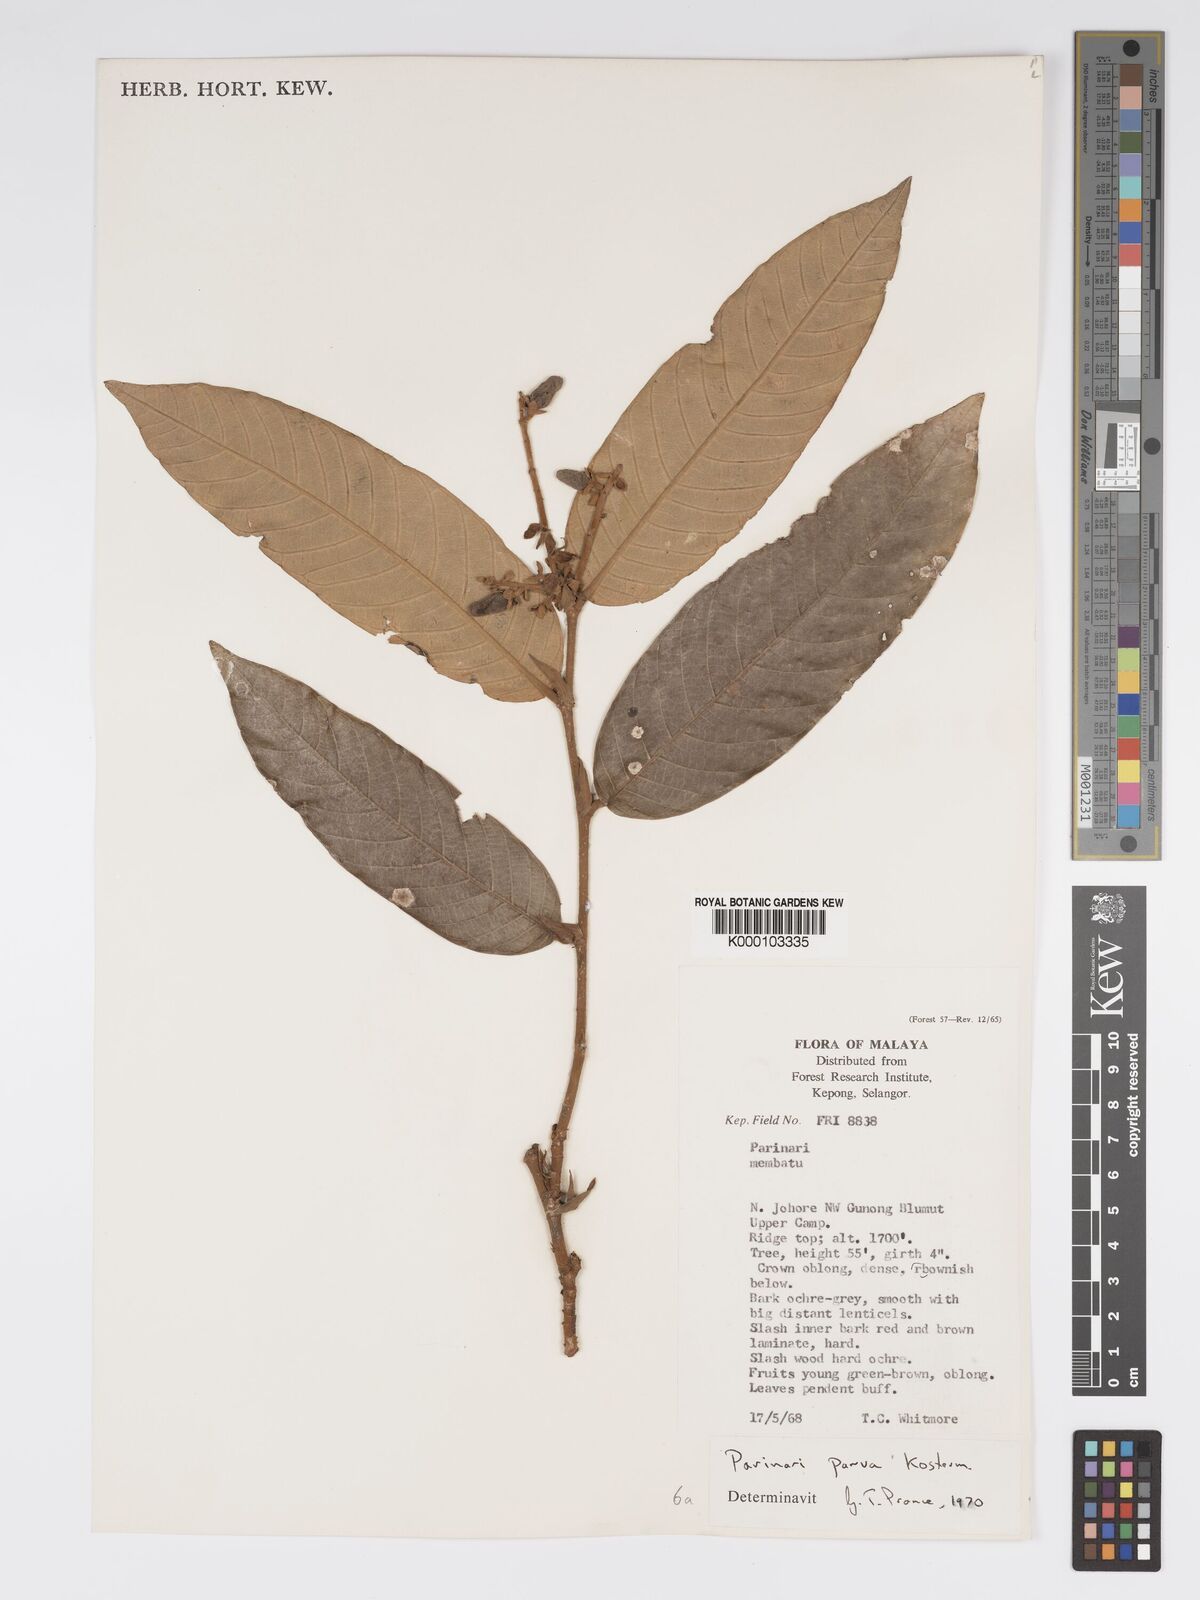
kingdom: Plantae
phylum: Tracheophyta
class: Magnoliopsida
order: Malpighiales
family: Chrysobalanaceae
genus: Parinari
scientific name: Parinari parva
